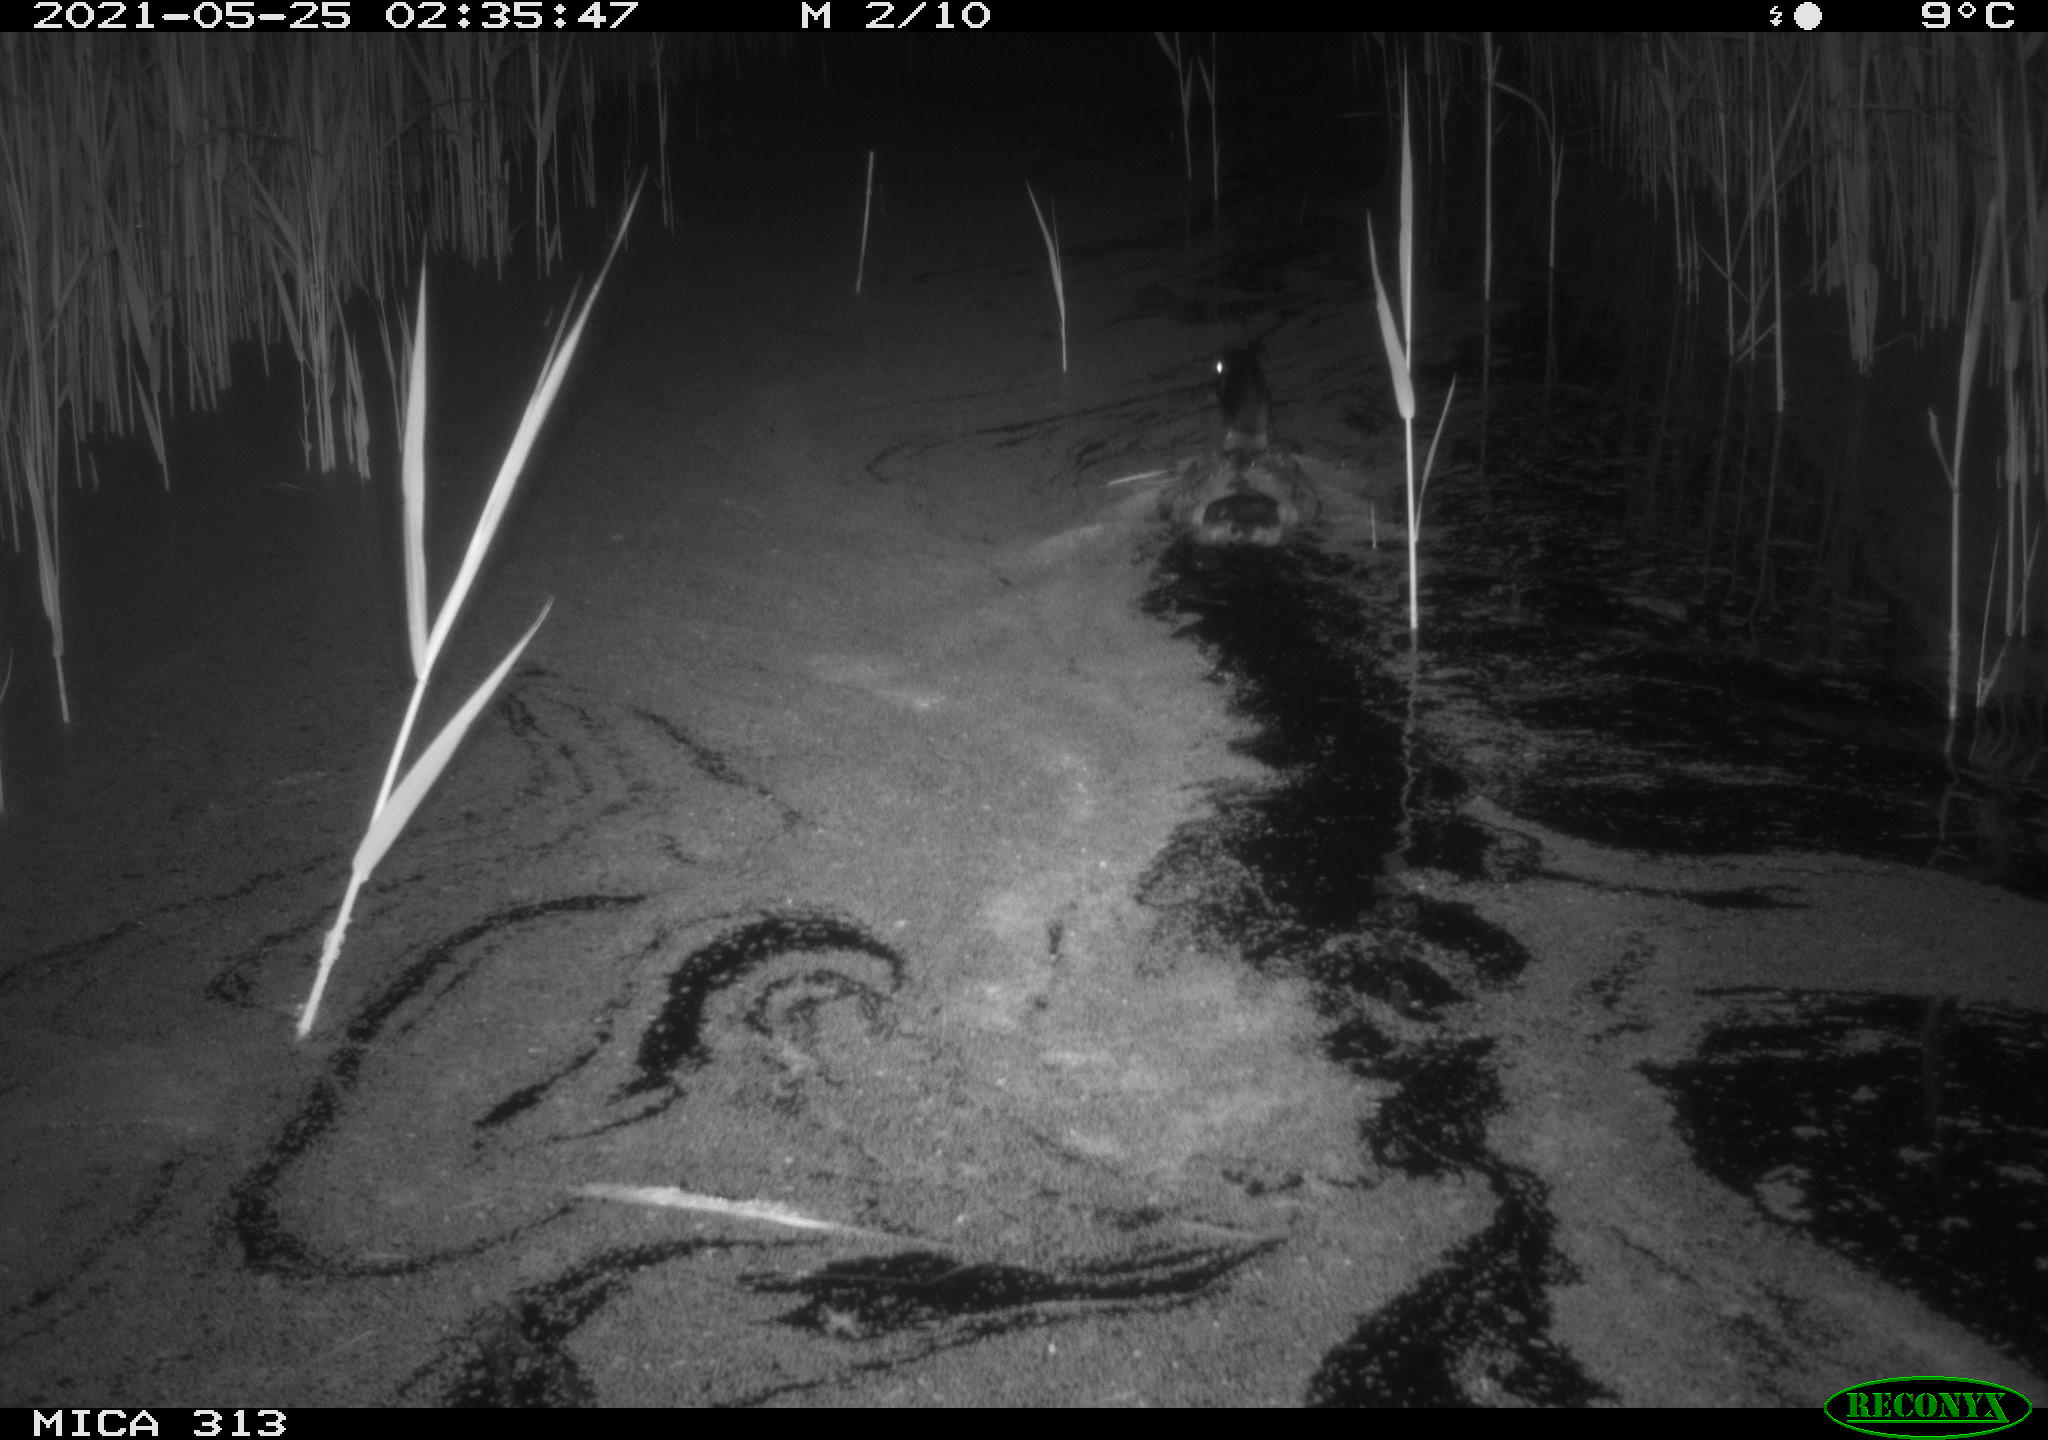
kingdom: Animalia
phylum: Chordata
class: Aves
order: Anseriformes
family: Anatidae
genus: Anas
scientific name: Anas platyrhynchos
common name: Mallard
